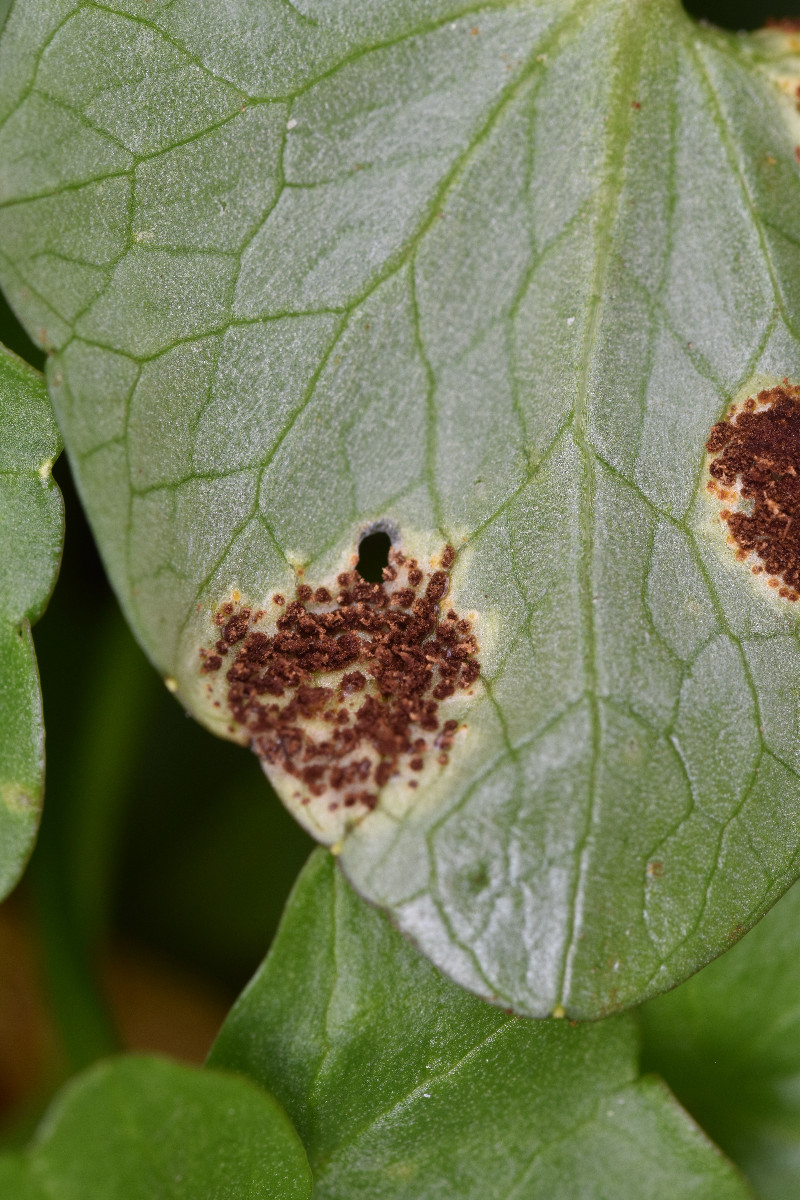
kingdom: Fungi
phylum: Basidiomycota
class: Pucciniomycetes
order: Pucciniales
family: Pucciniaceae
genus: Uromyces
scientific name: Uromyces ficariae
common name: vorterod-encellerust
